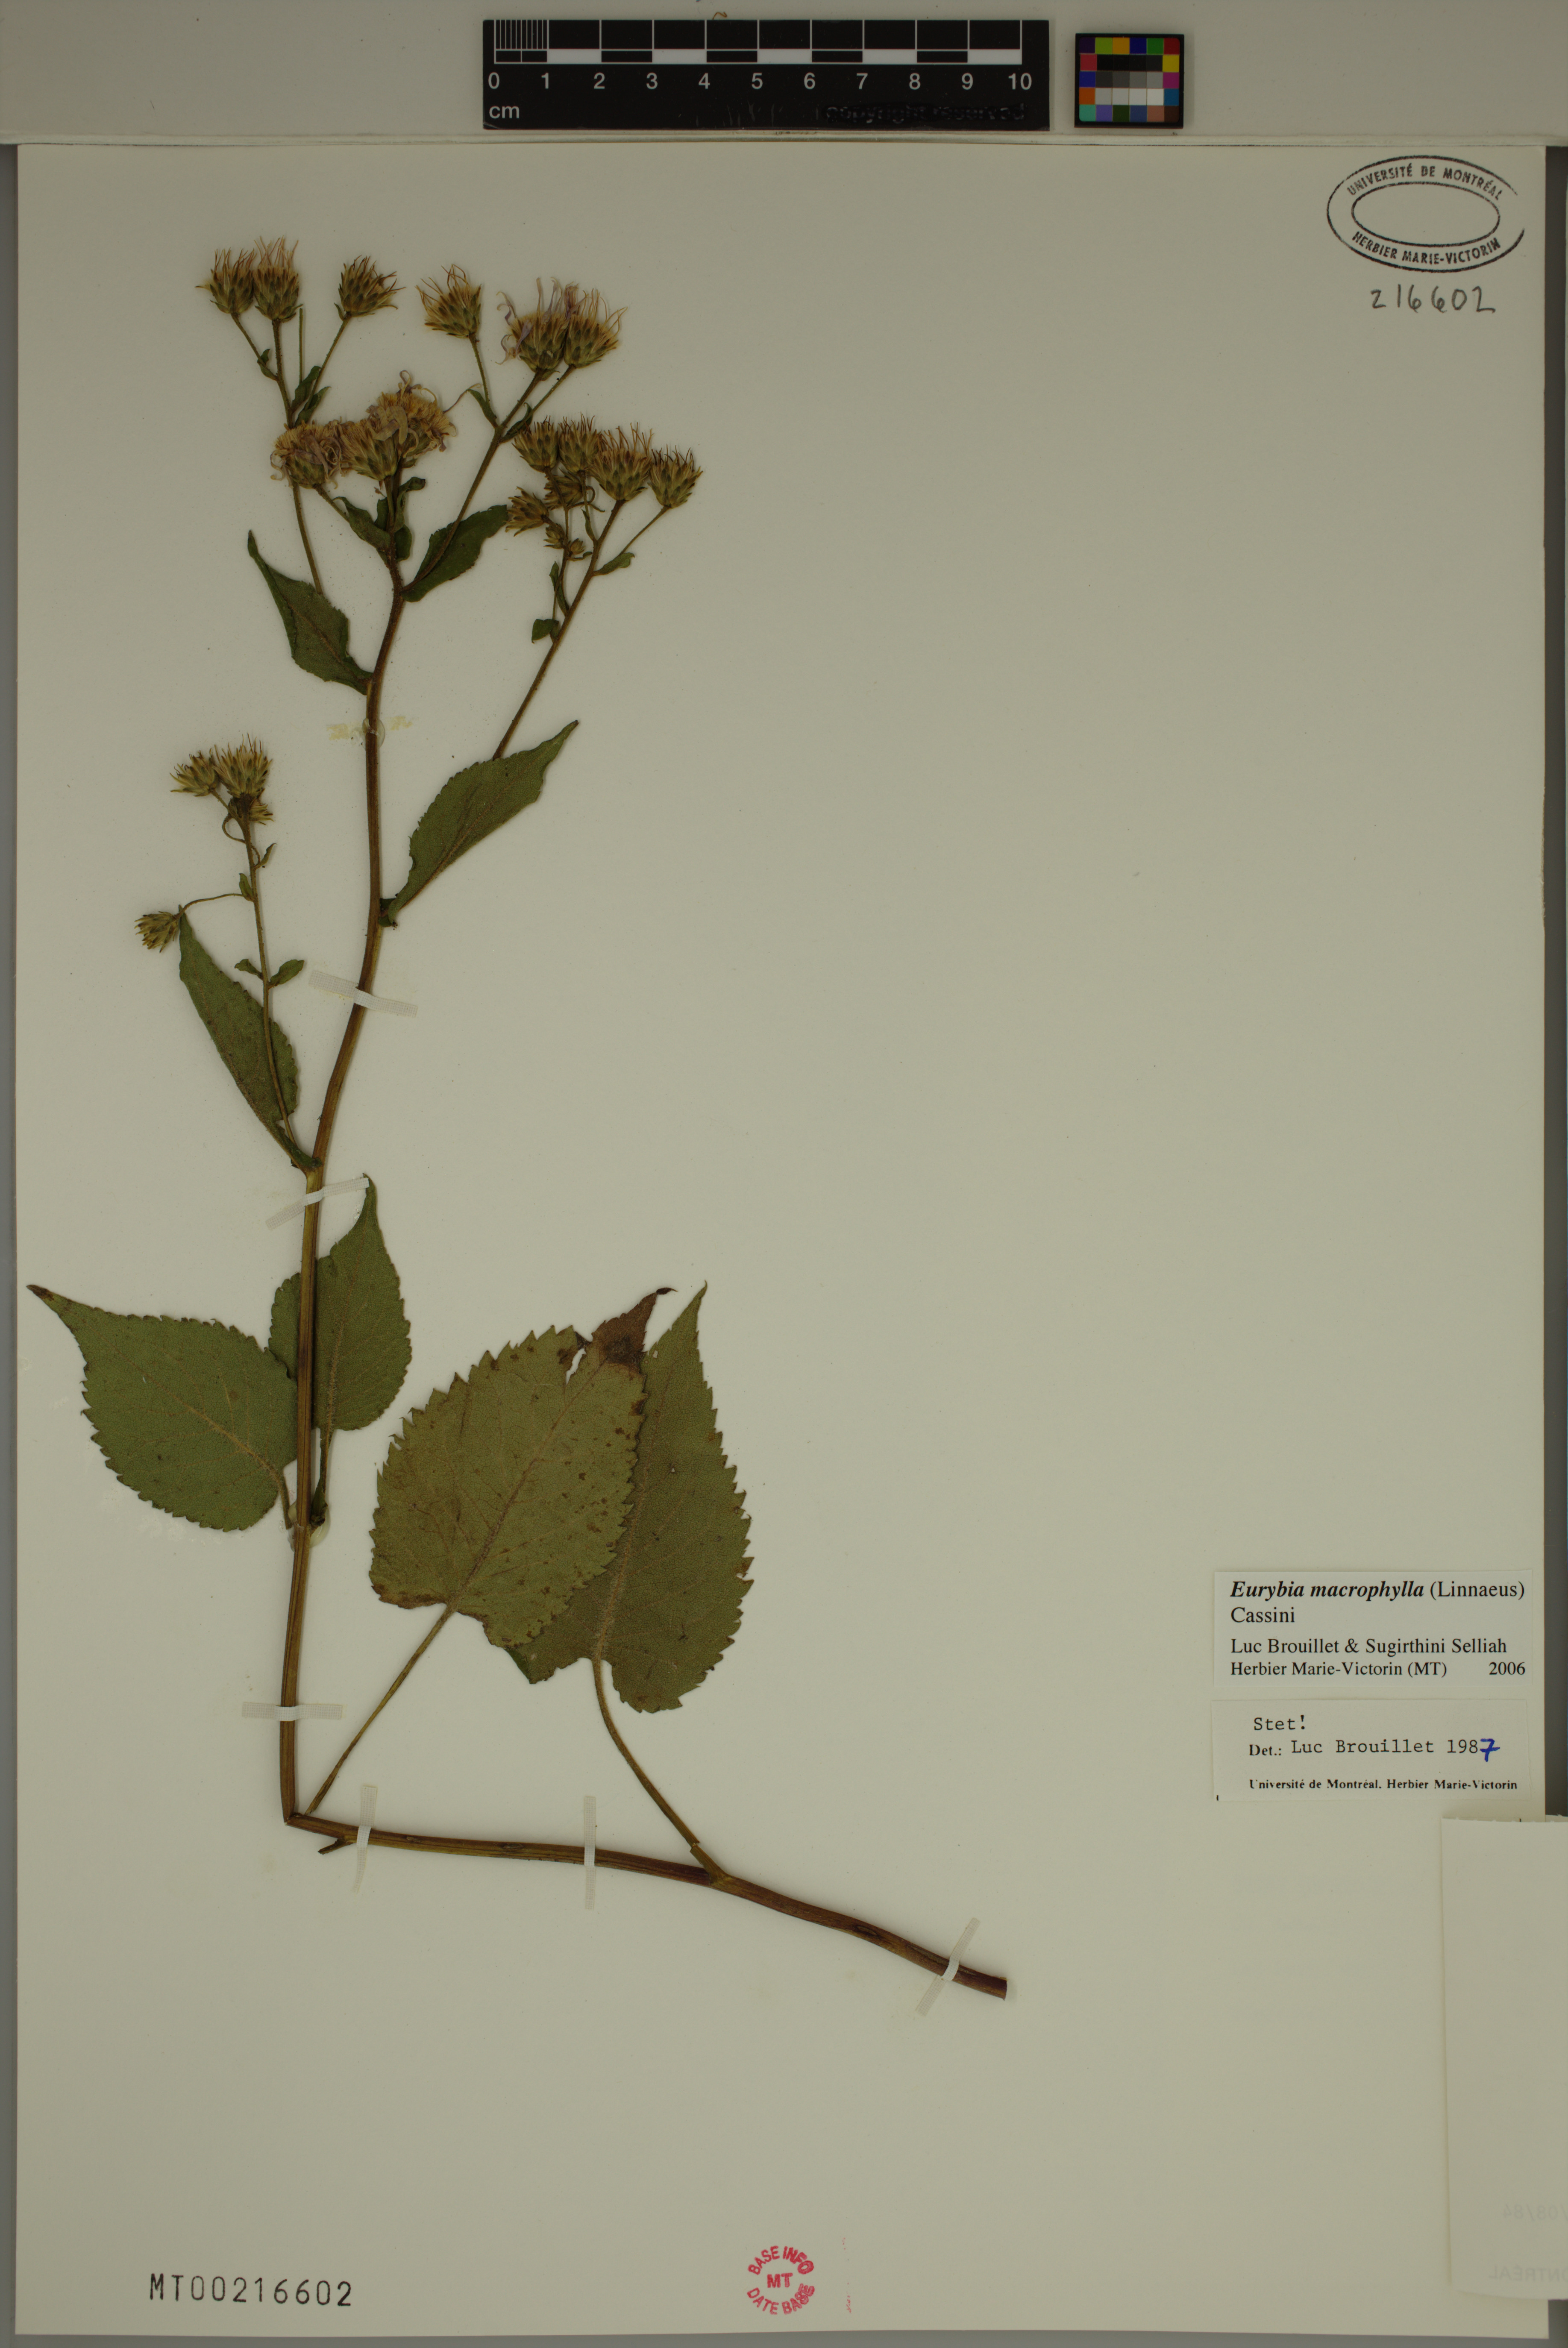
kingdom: Plantae
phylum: Tracheophyta
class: Magnoliopsida
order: Asterales
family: Asteraceae
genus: Eurybia
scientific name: Eurybia macrophylla
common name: Big-leaved aster
